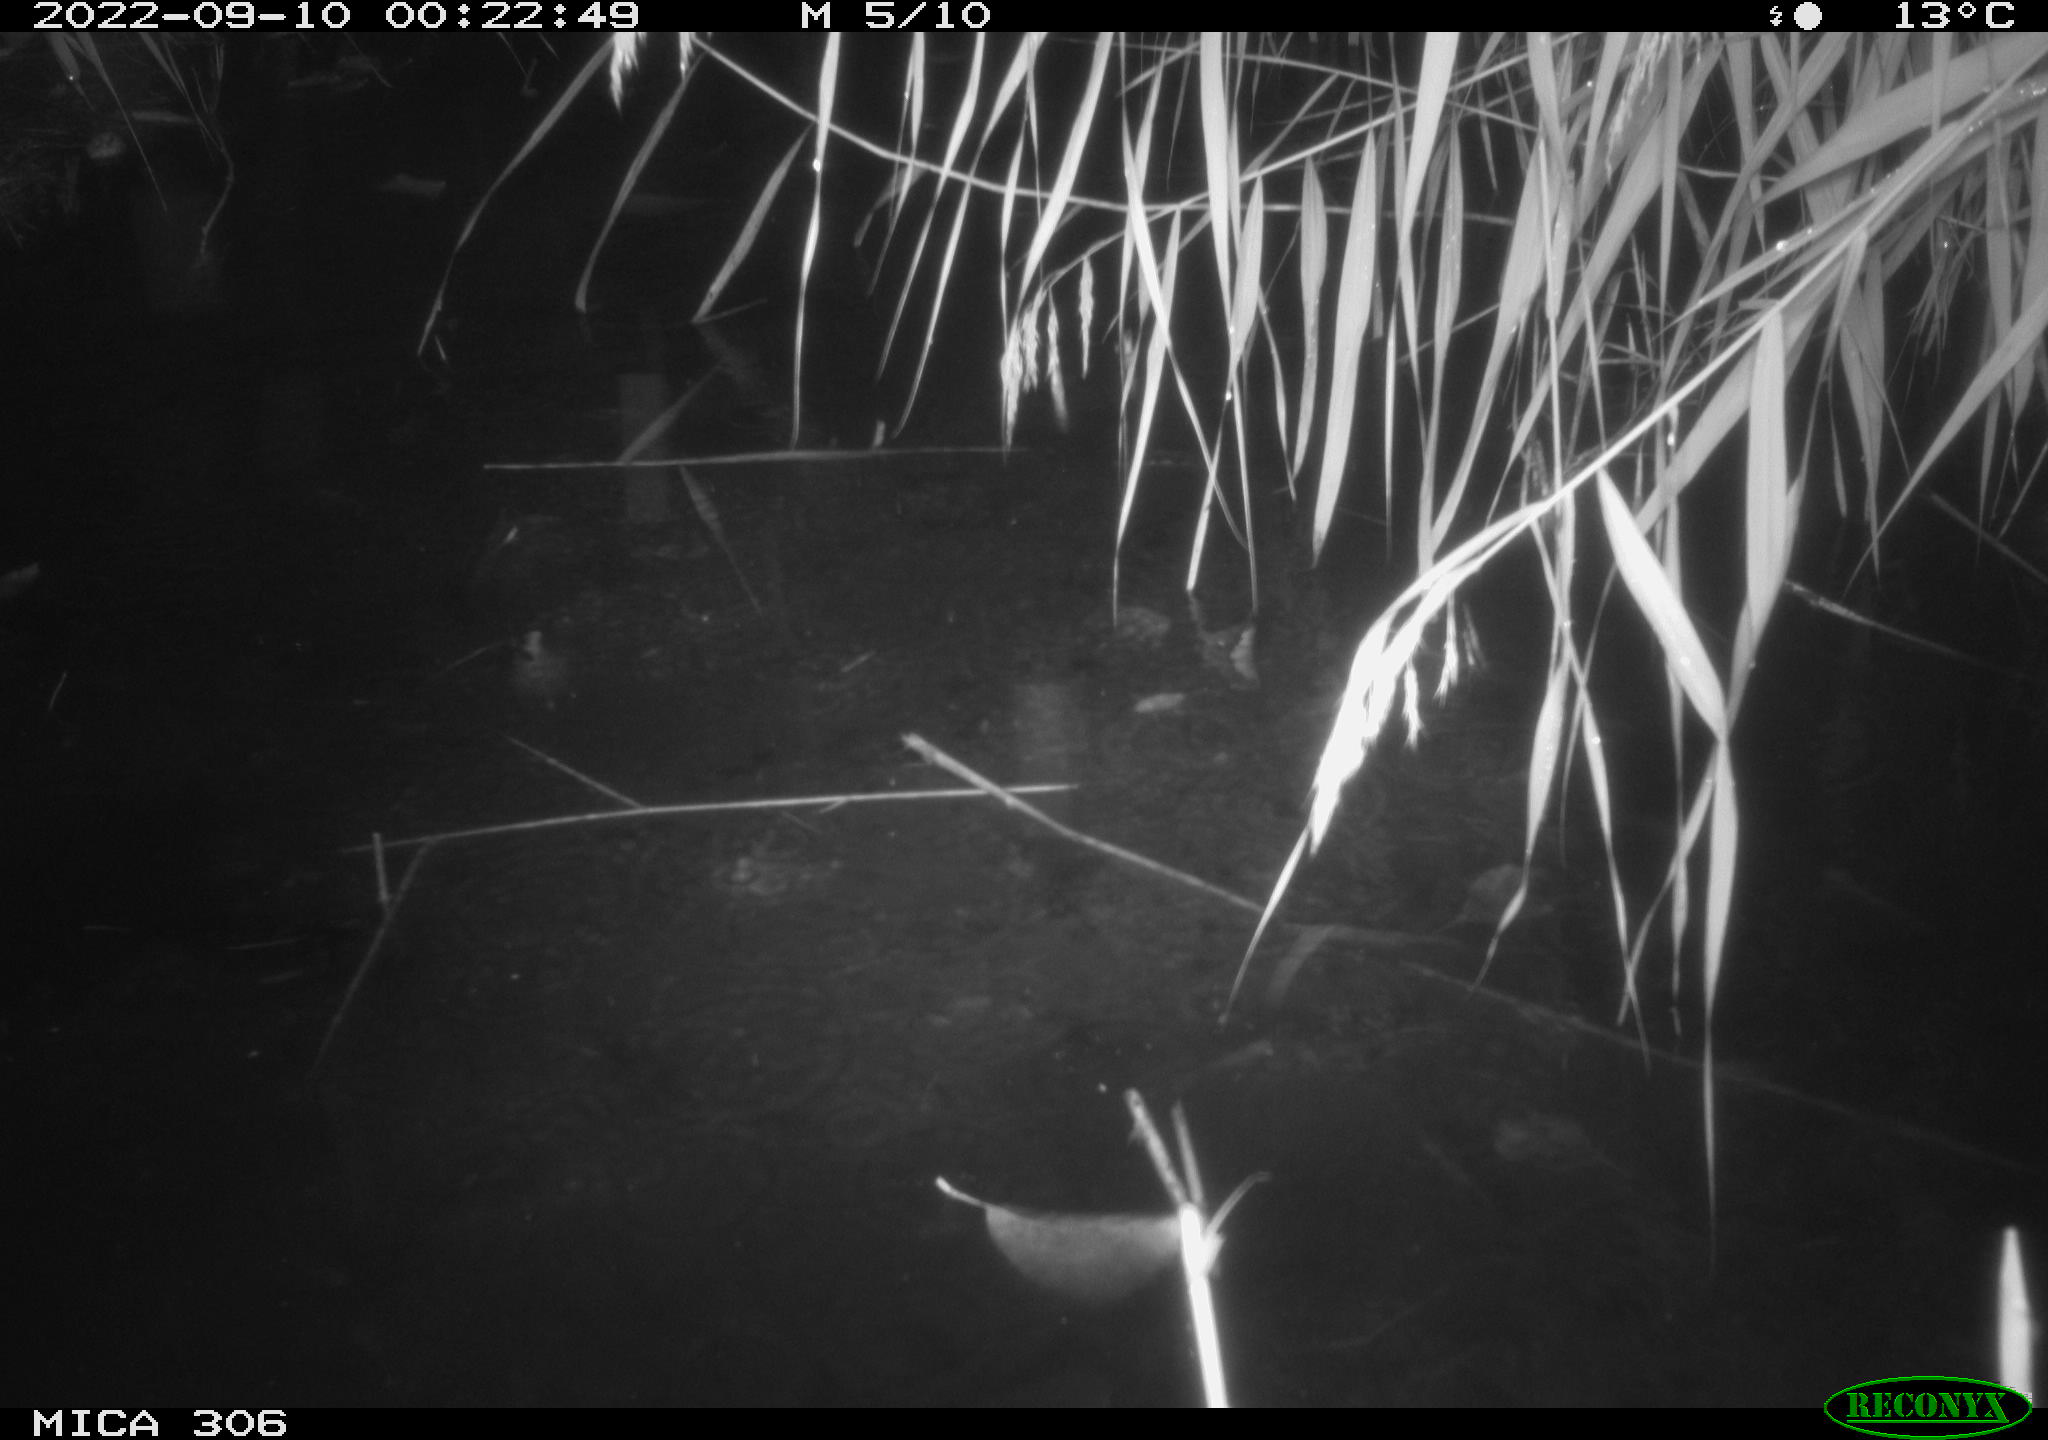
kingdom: Animalia
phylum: Chordata
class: Mammalia
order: Rodentia
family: Muridae
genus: Rattus
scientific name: Rattus norvegicus
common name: Brown rat
